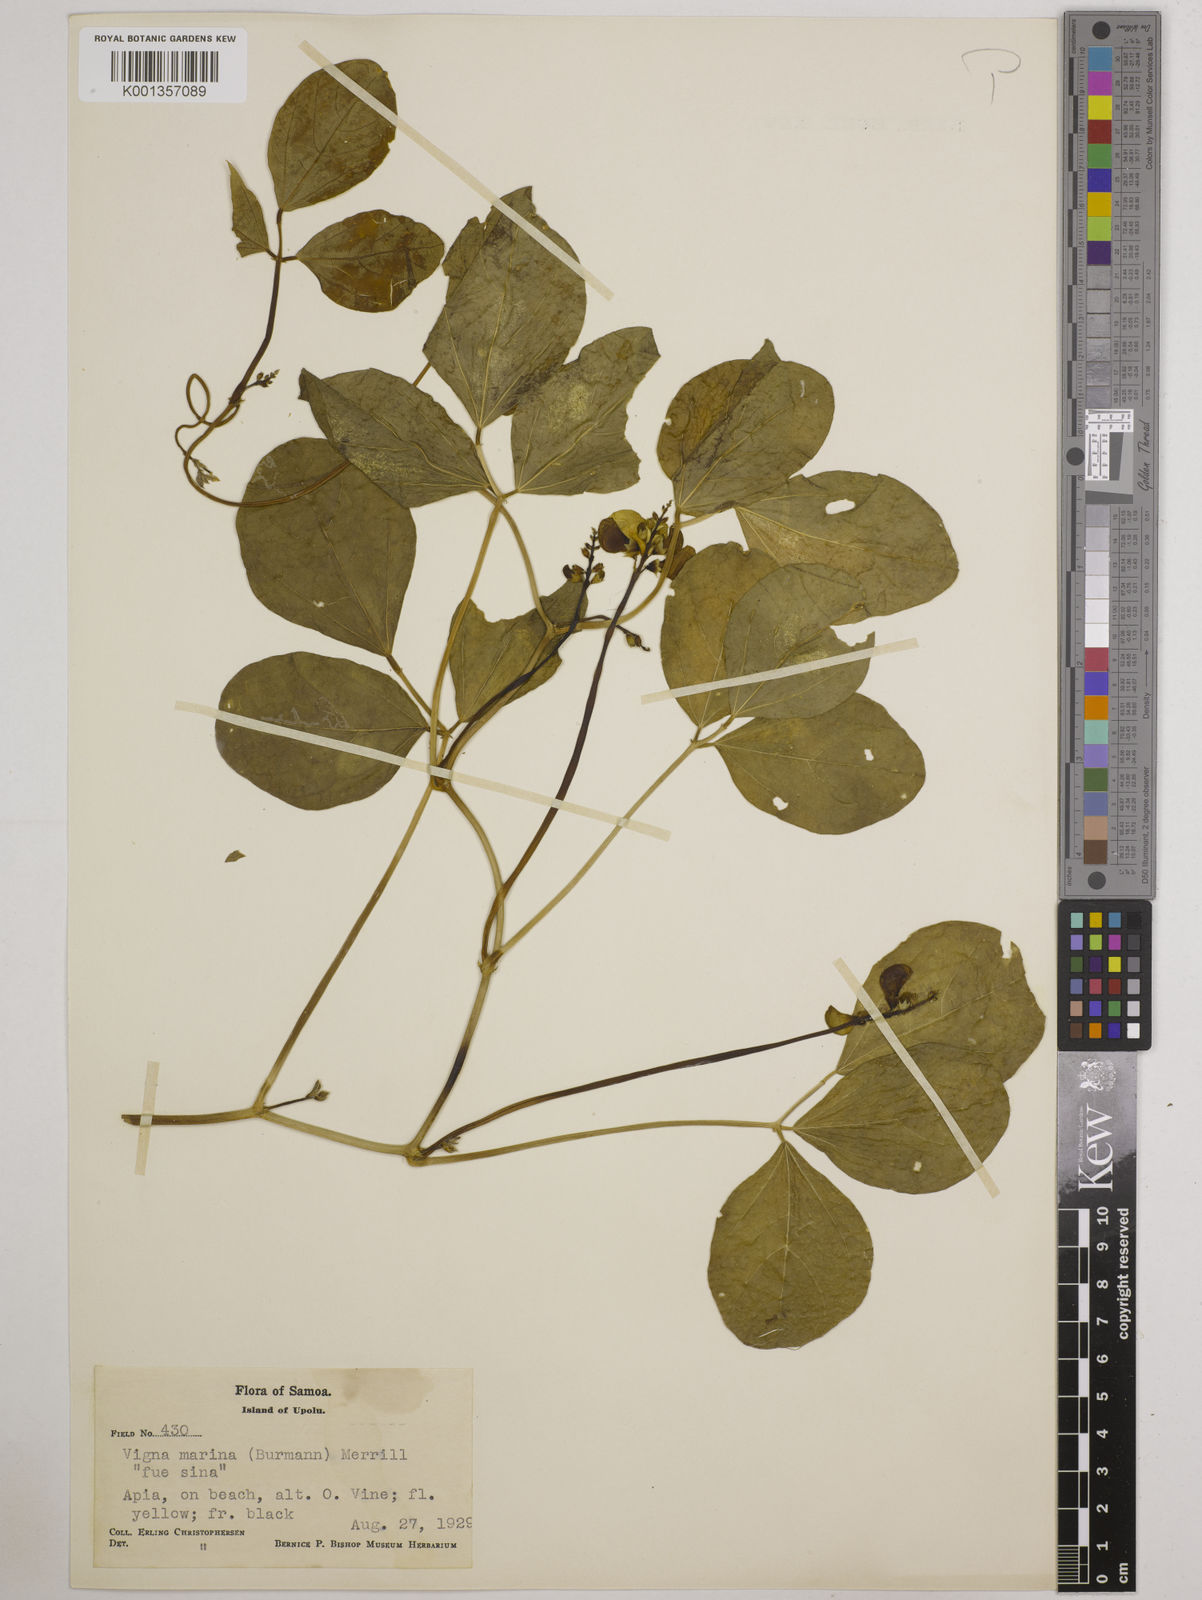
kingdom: Plantae
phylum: Tracheophyta
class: Magnoliopsida
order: Fabales
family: Fabaceae
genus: Vigna
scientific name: Vigna marina
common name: Dune-bean
